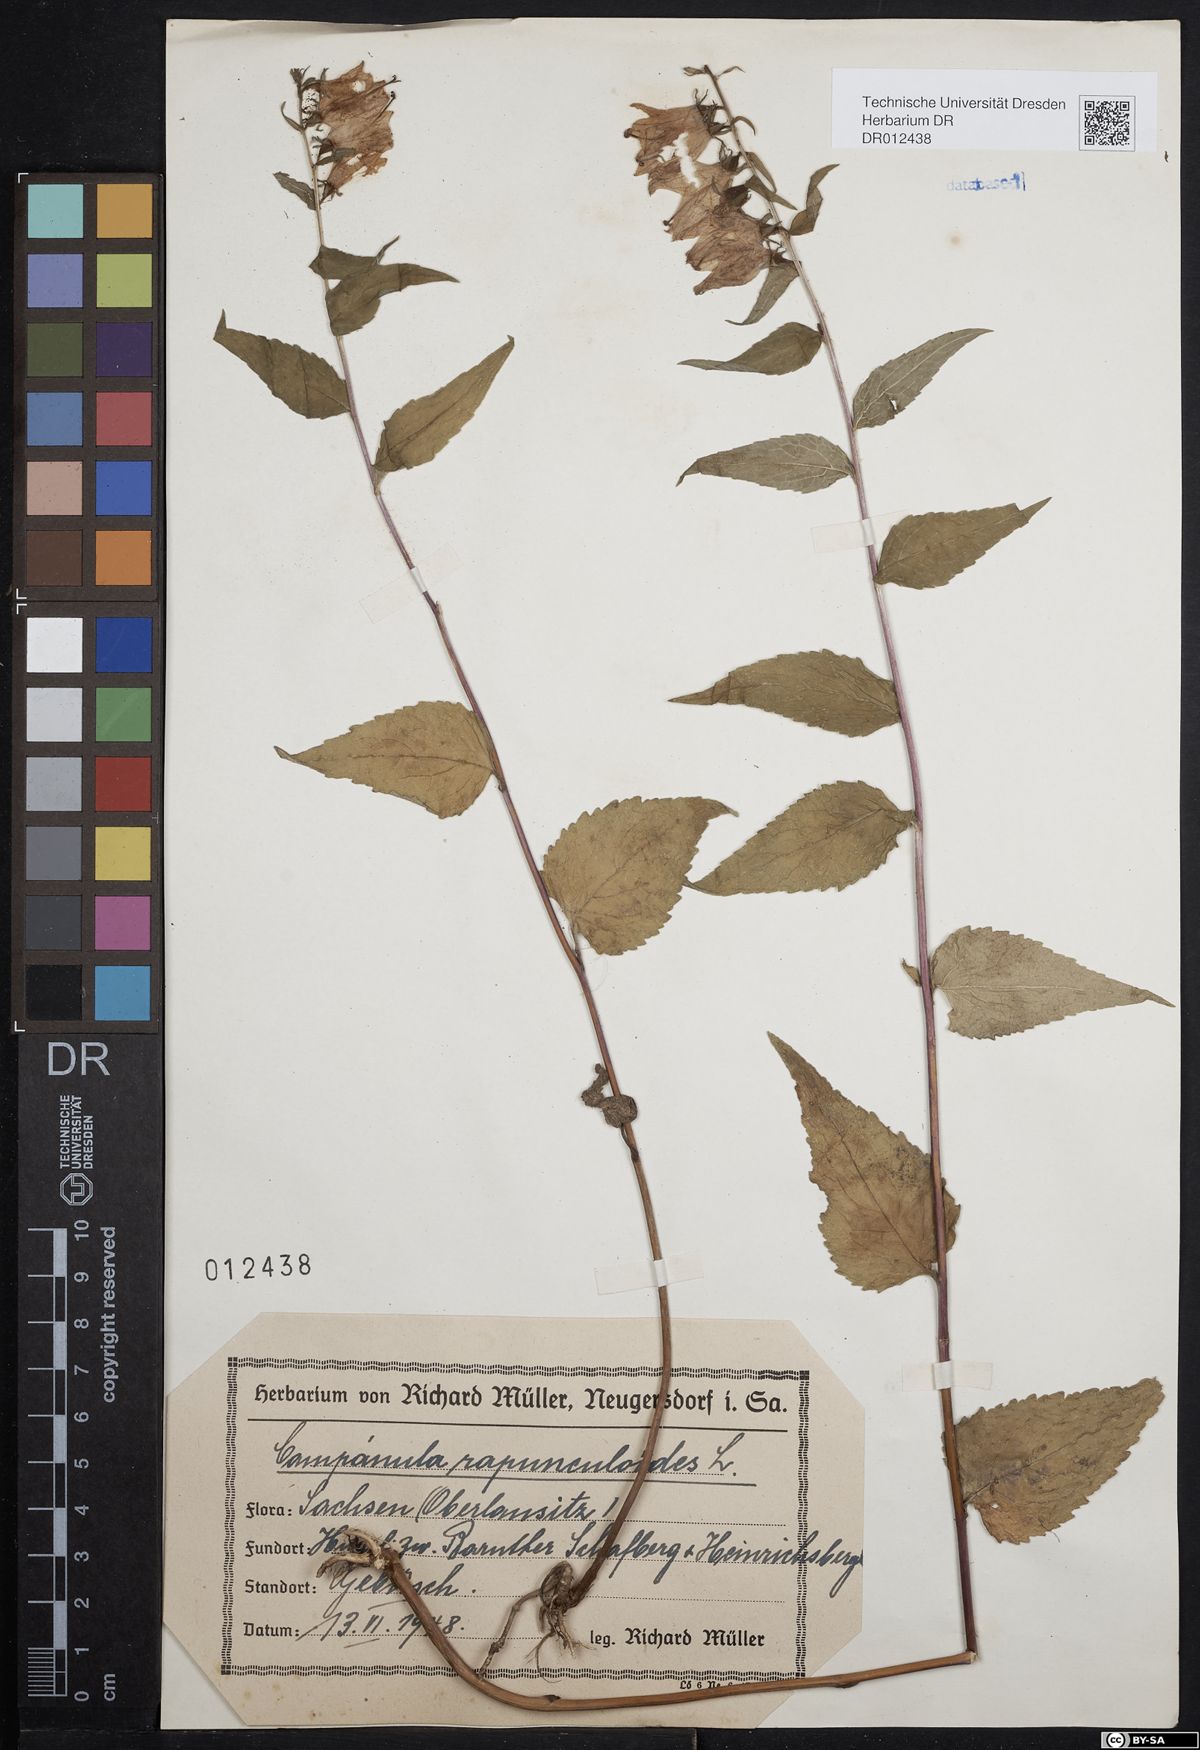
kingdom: Plantae
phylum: Tracheophyta
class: Magnoliopsida
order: Asterales
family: Campanulaceae
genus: Campanula
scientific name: Campanula rapunculoides
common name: Creeping bellflower
